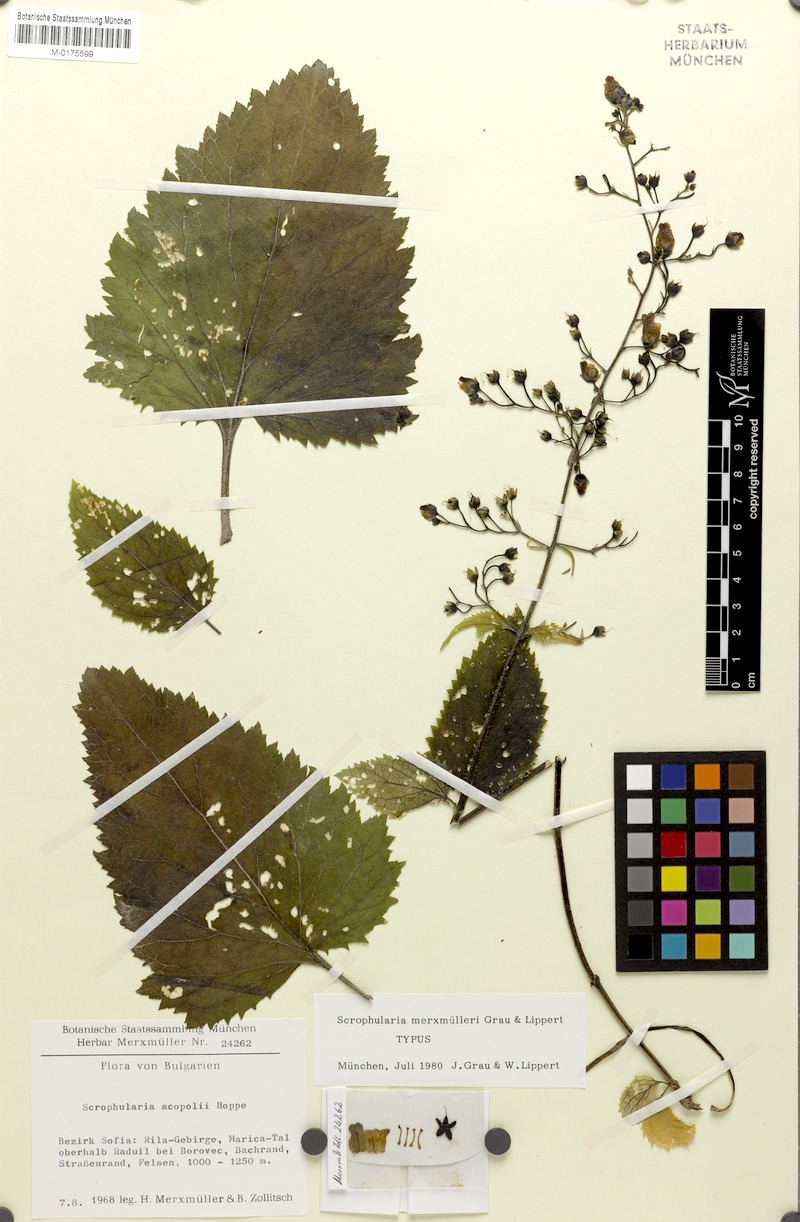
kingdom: Plantae
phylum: Tracheophyta
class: Magnoliopsida
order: Lamiales
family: Scrophulariaceae
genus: Scrophularia
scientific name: Scrophularia scopolii
